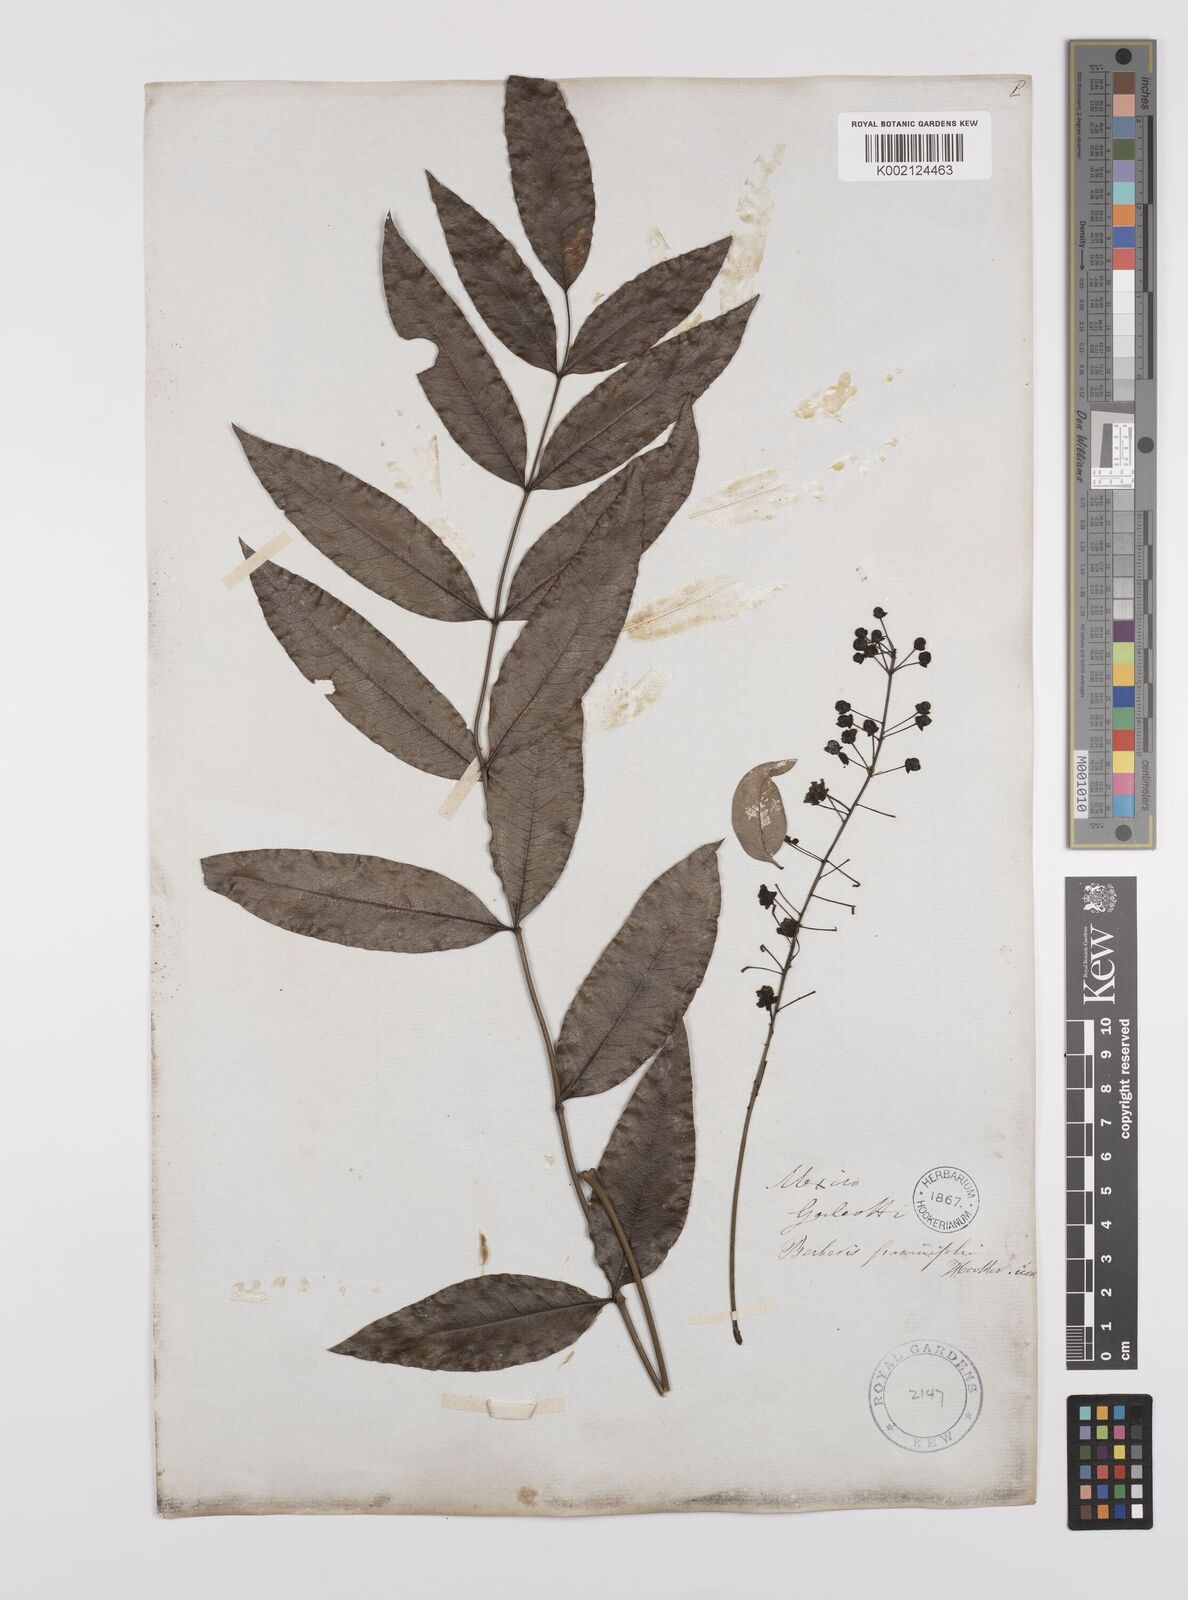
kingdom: Plantae
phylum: Tracheophyta
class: Magnoliopsida
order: Ranunculales
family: Berberidaceae
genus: Mahonia
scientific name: Mahonia tenuifolia
